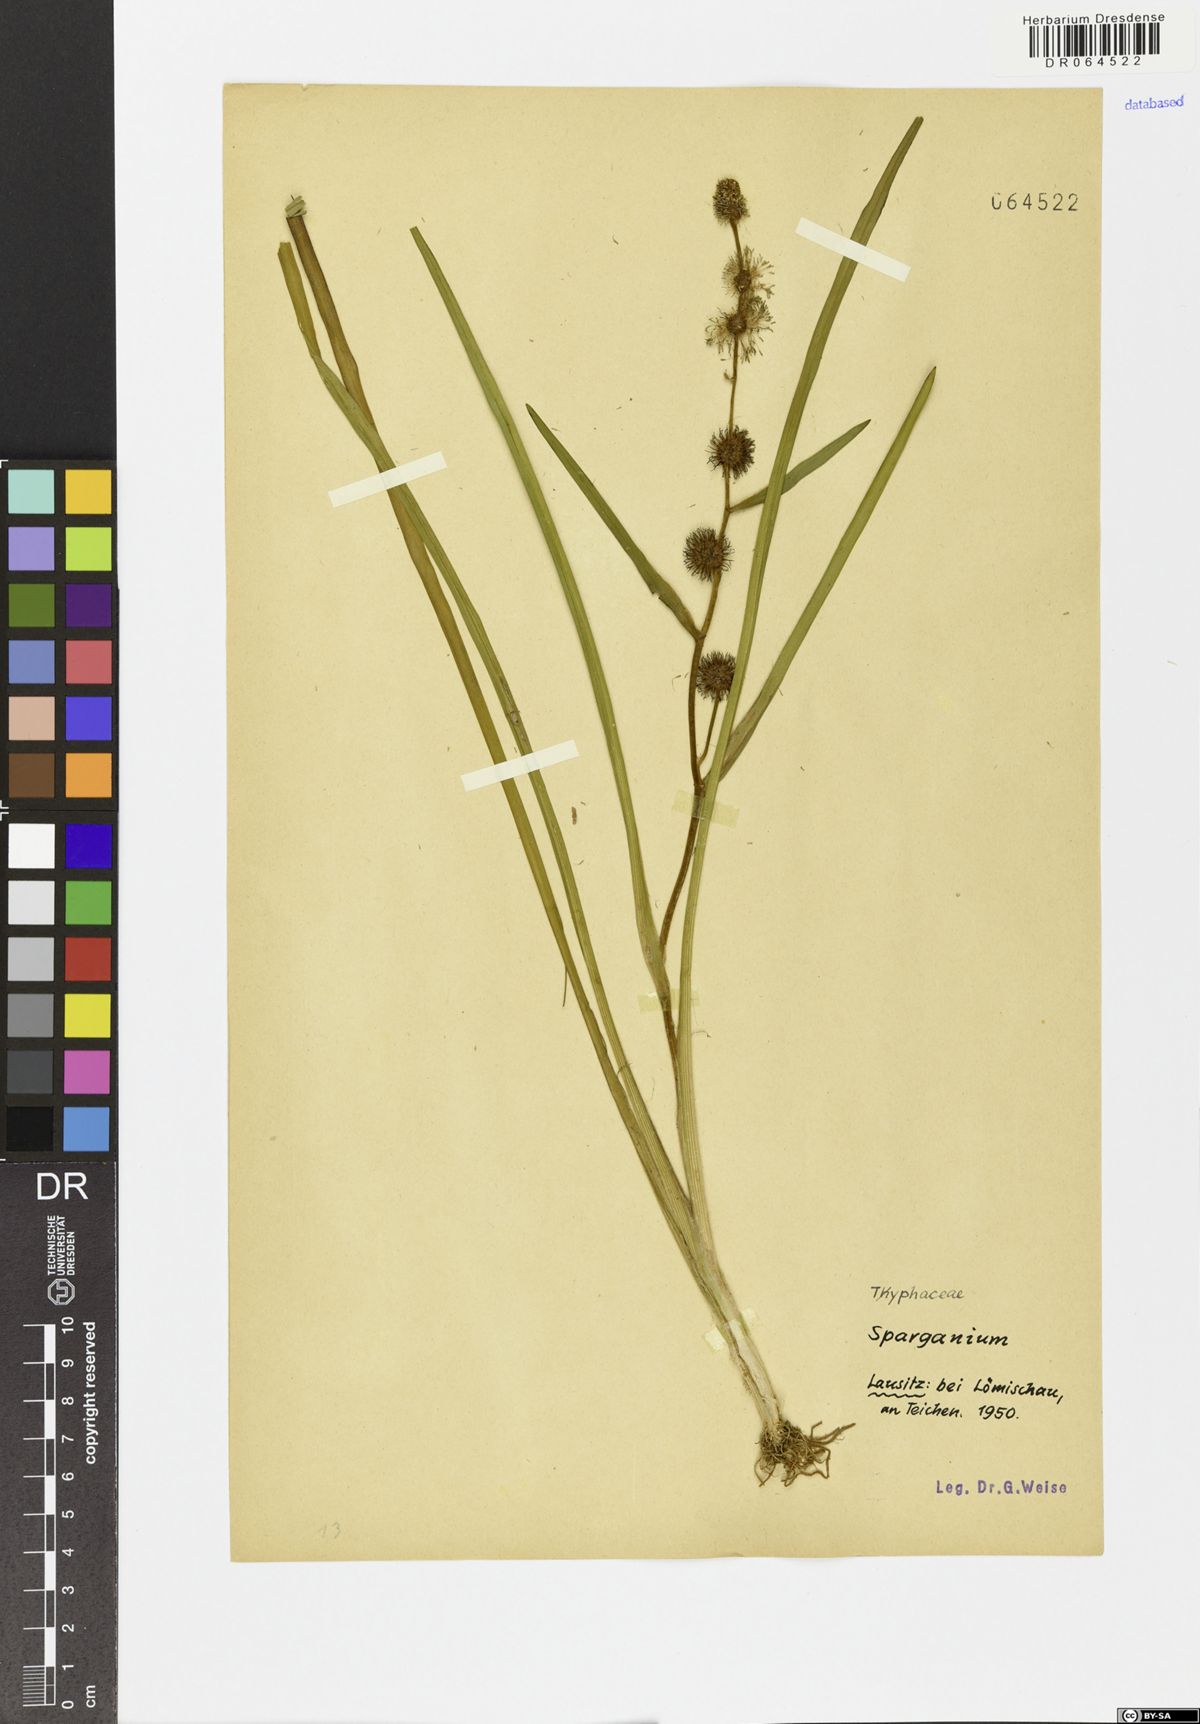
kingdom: Plantae
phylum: Tracheophyta
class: Liliopsida
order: Poales
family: Typhaceae
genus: Sparganium
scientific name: Sparganium
